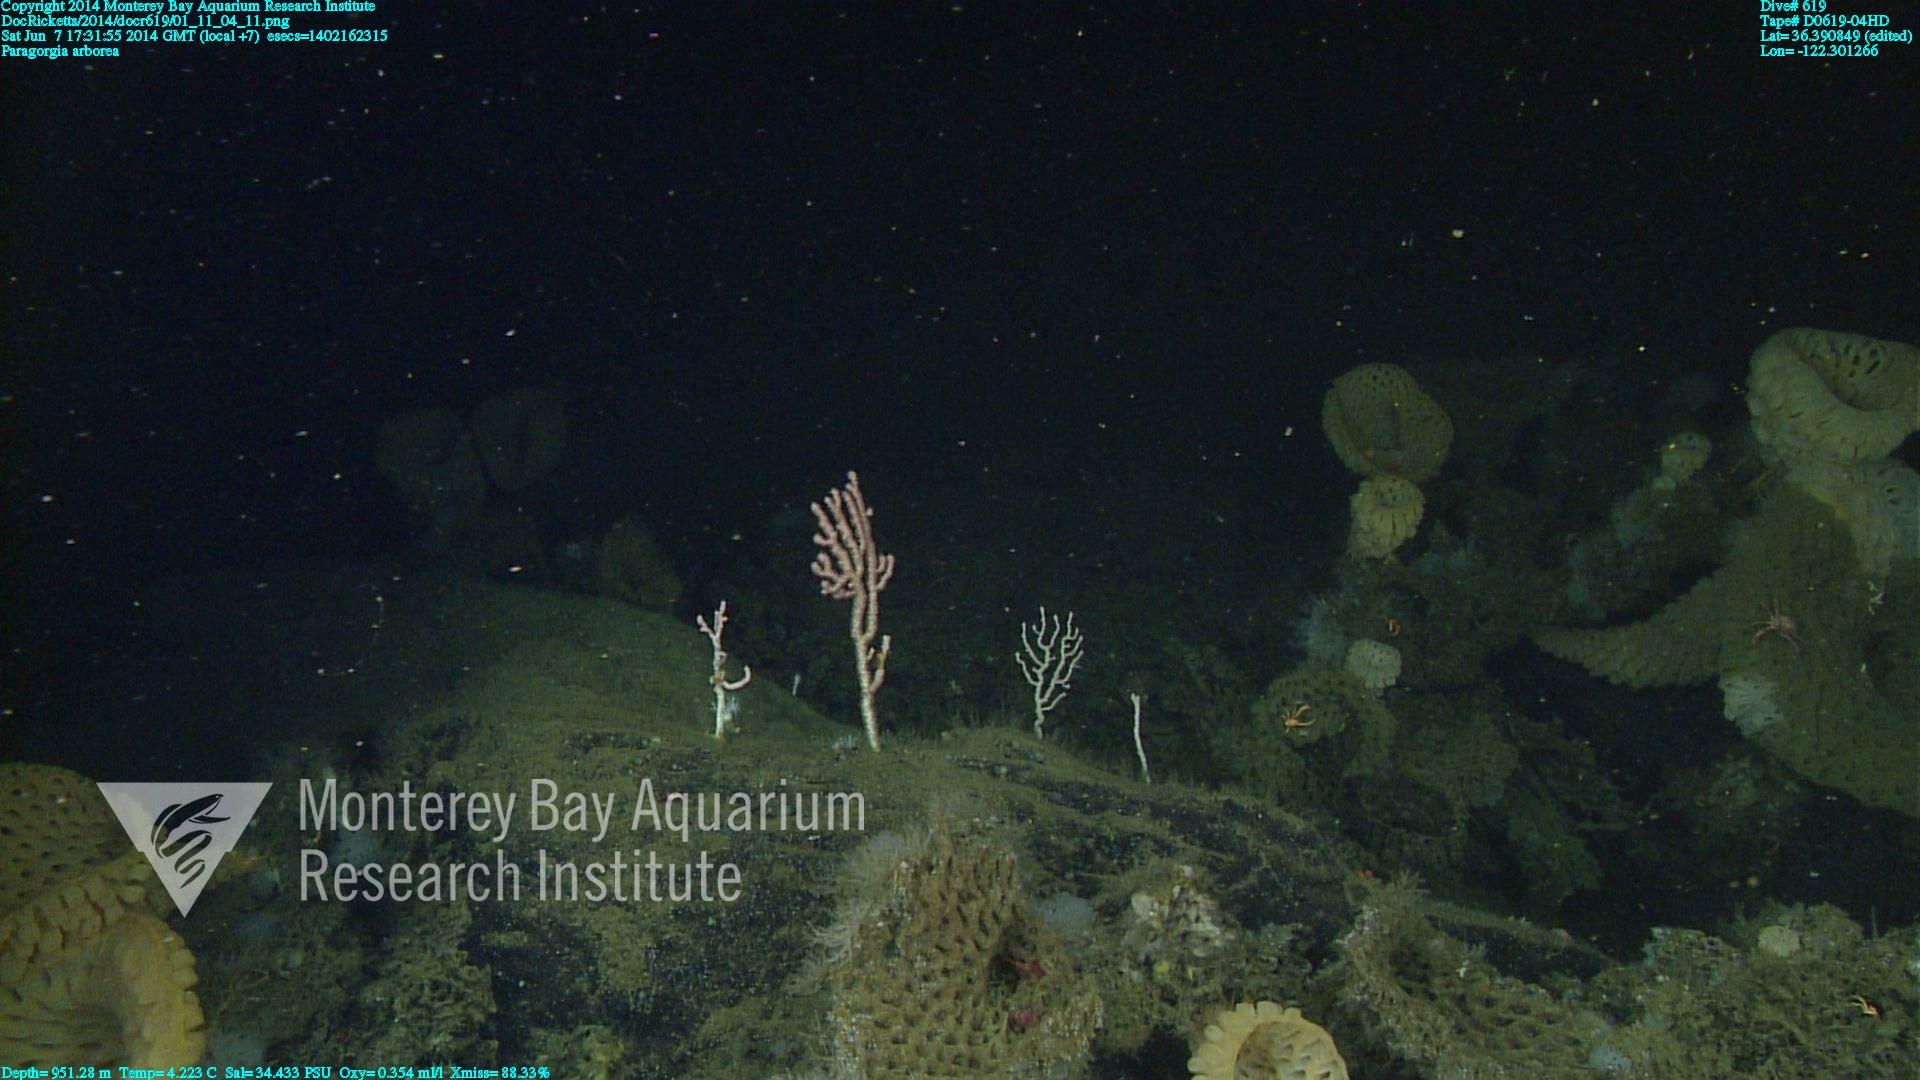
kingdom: Animalia
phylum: Cnidaria
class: Anthozoa
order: Scleralcyonacea
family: Coralliidae
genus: Paragorgia
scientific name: Paragorgia arborea
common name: Bubble gum coral
